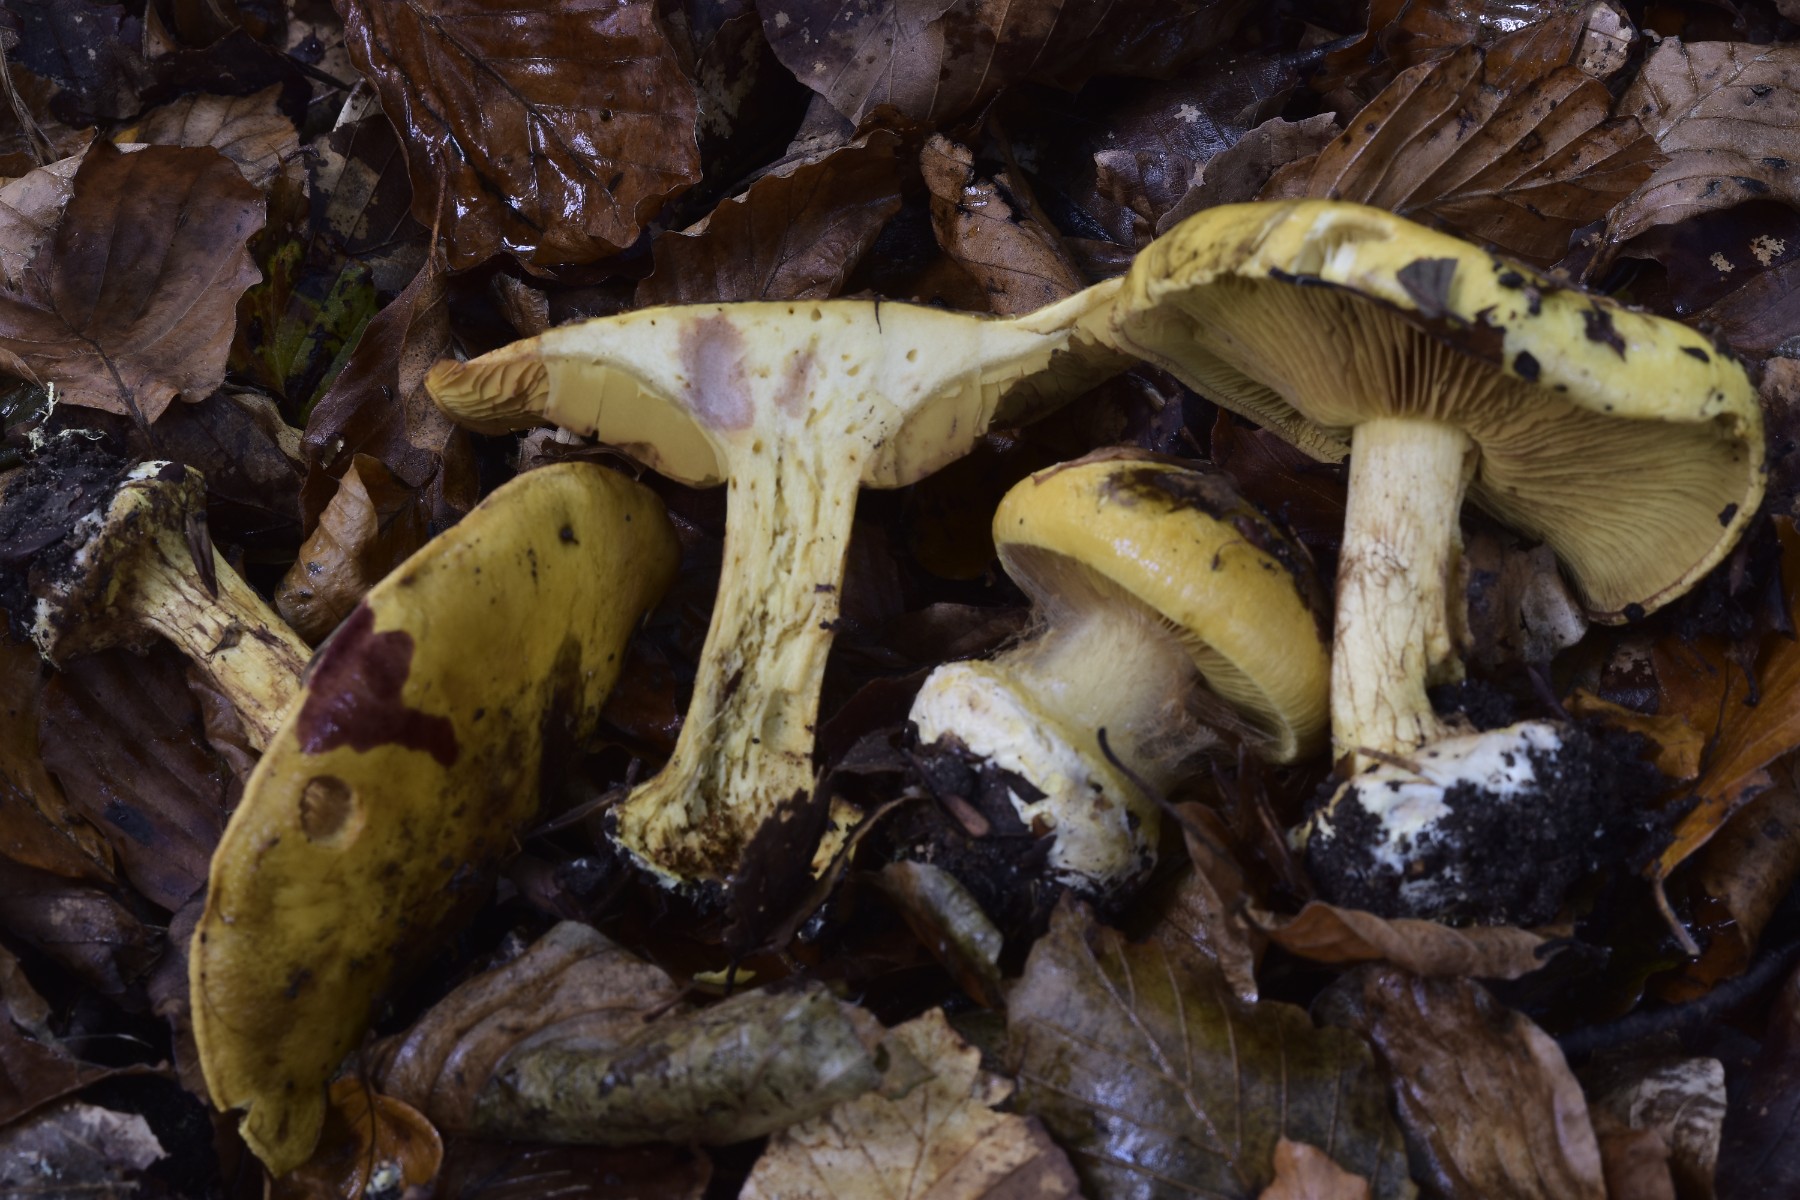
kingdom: Fungi
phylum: Basidiomycota
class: Agaricomycetes
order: Agaricales
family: Cortinariaceae
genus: Calonarius
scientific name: Calonarius alcalinophilus
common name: gyldenbrun slørhat
